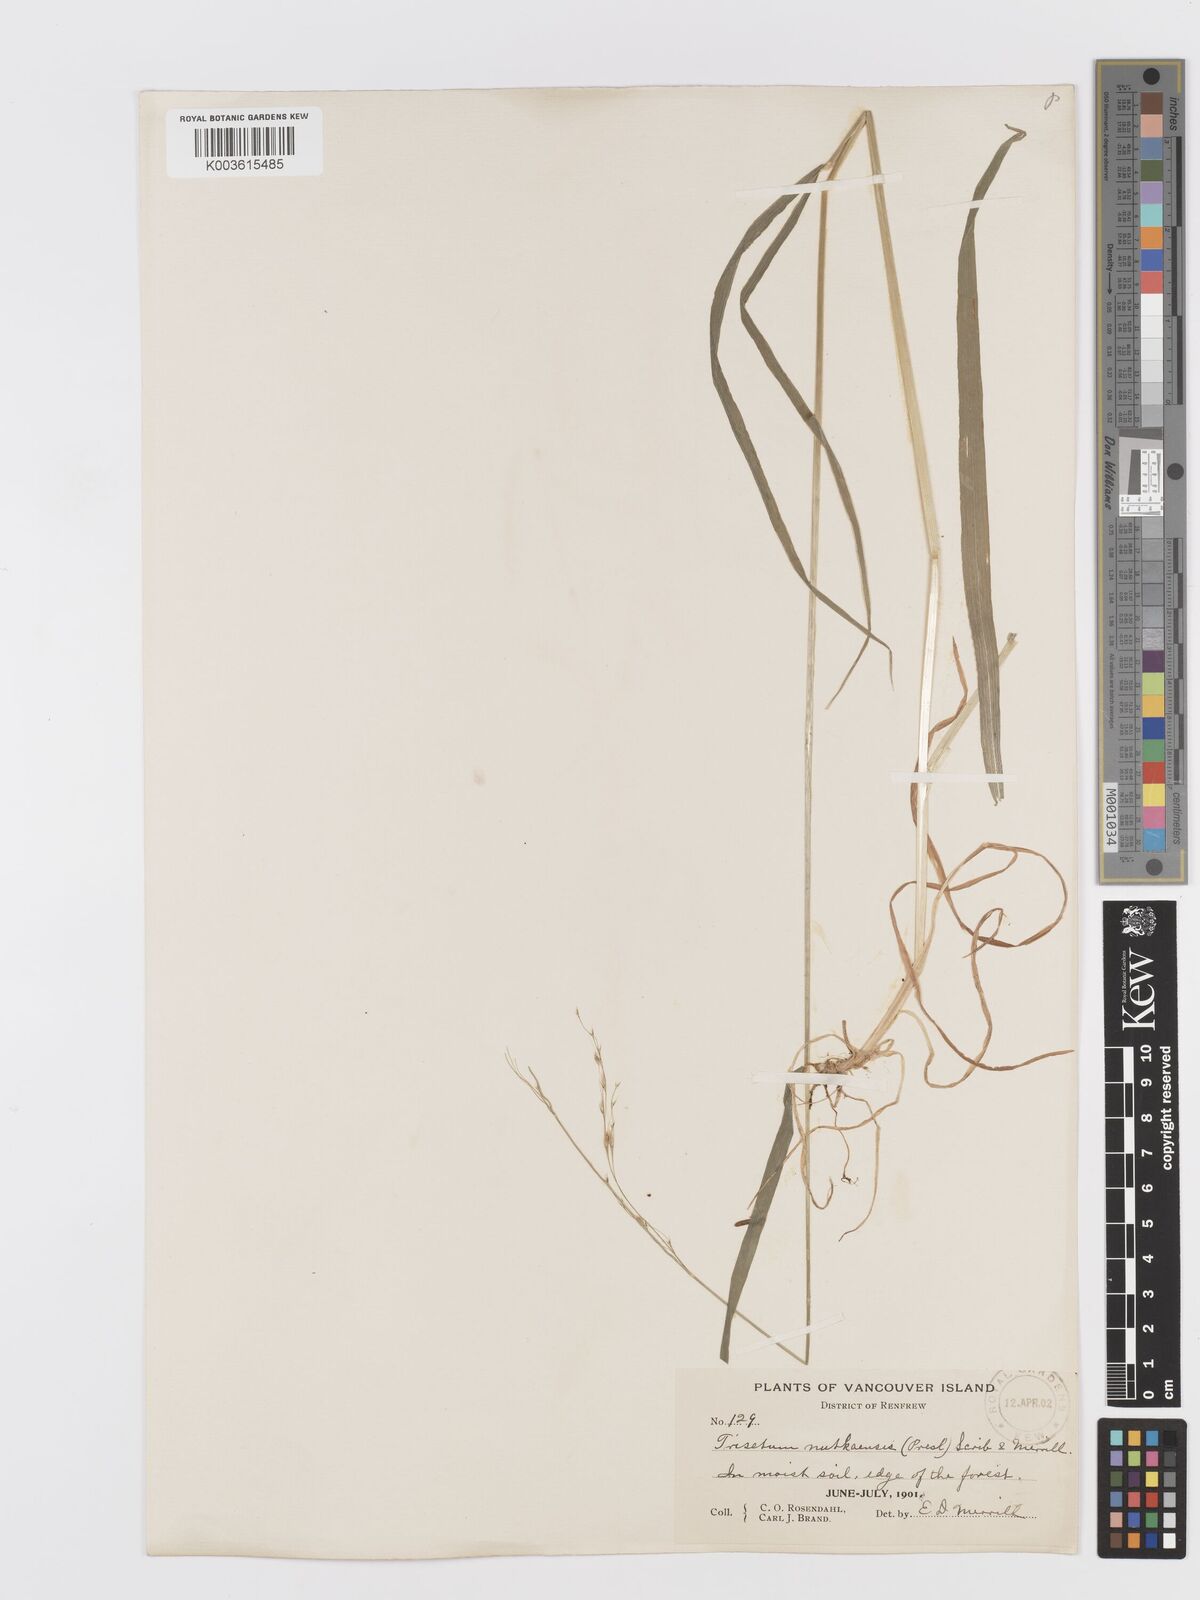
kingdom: Plantae
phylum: Tracheophyta
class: Liliopsida
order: Poales
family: Poaceae
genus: Graphephorum
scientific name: Graphephorum cernuum
